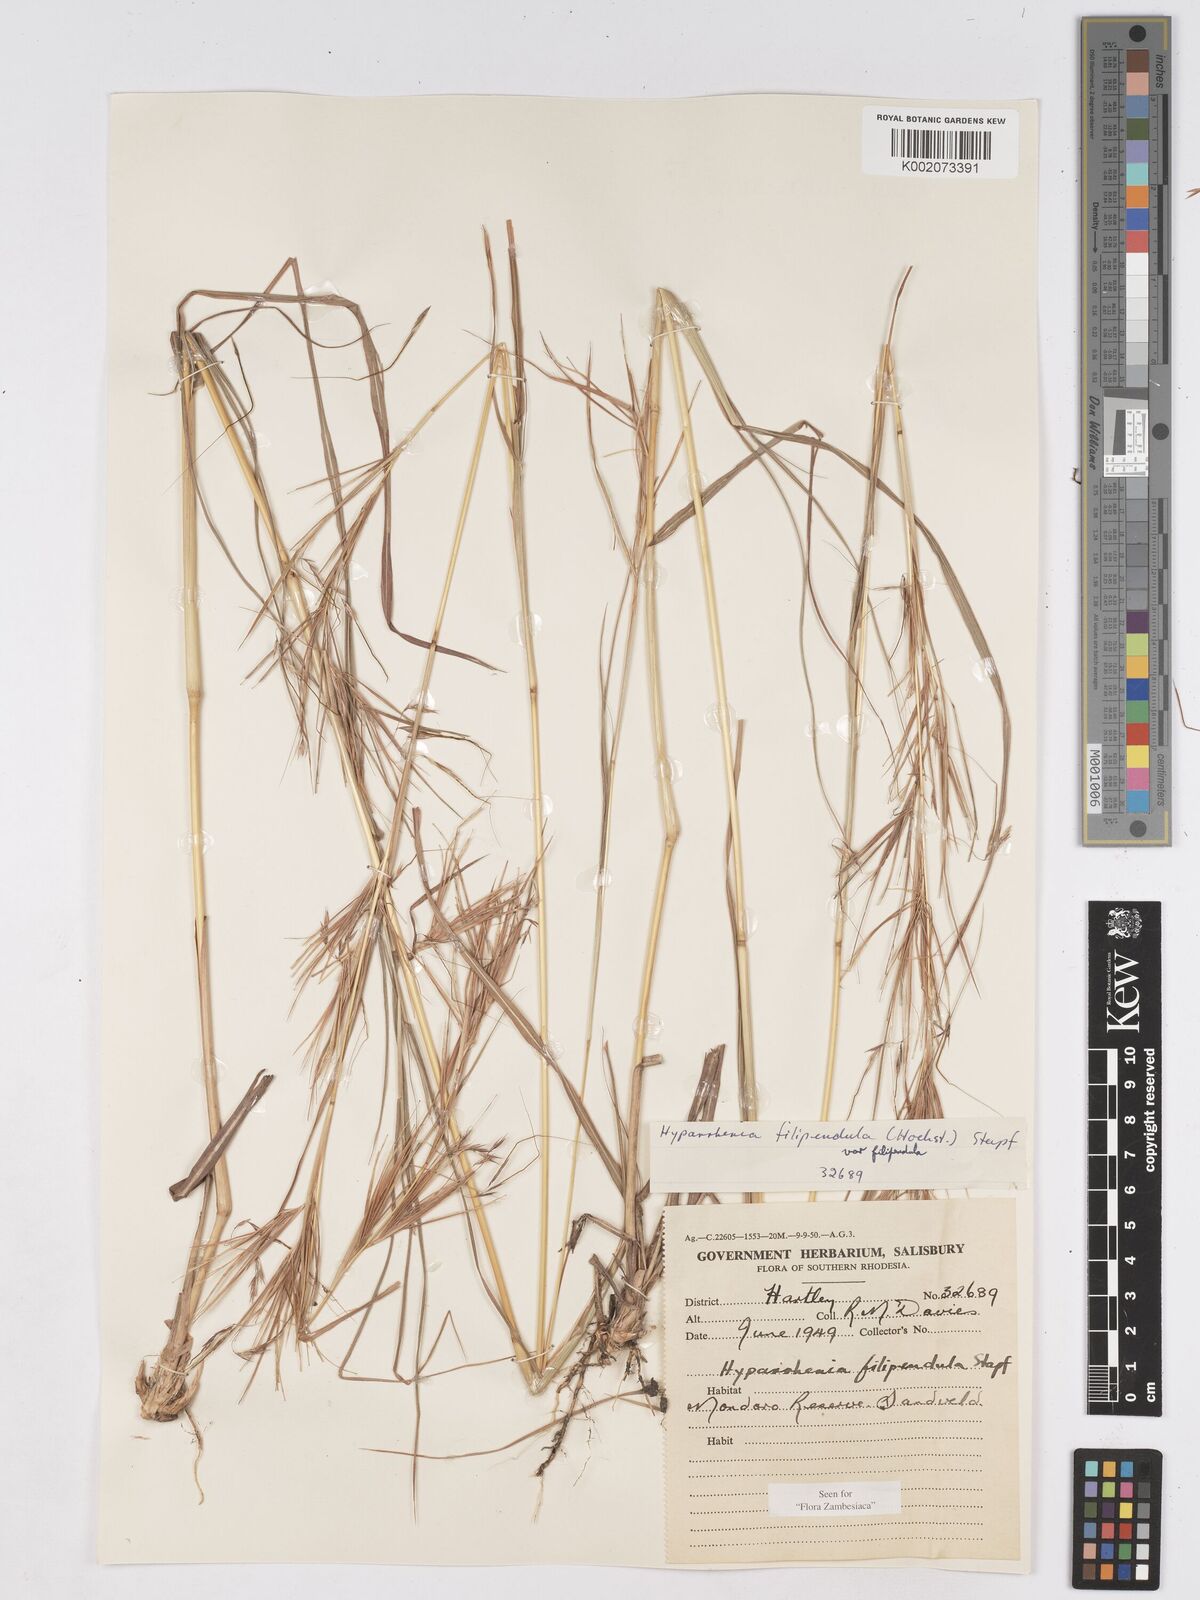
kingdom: Plantae
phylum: Tracheophyta
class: Liliopsida
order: Poales
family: Poaceae
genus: Hyparrhenia
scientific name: Hyparrhenia filipendula
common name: Tambookie grass
